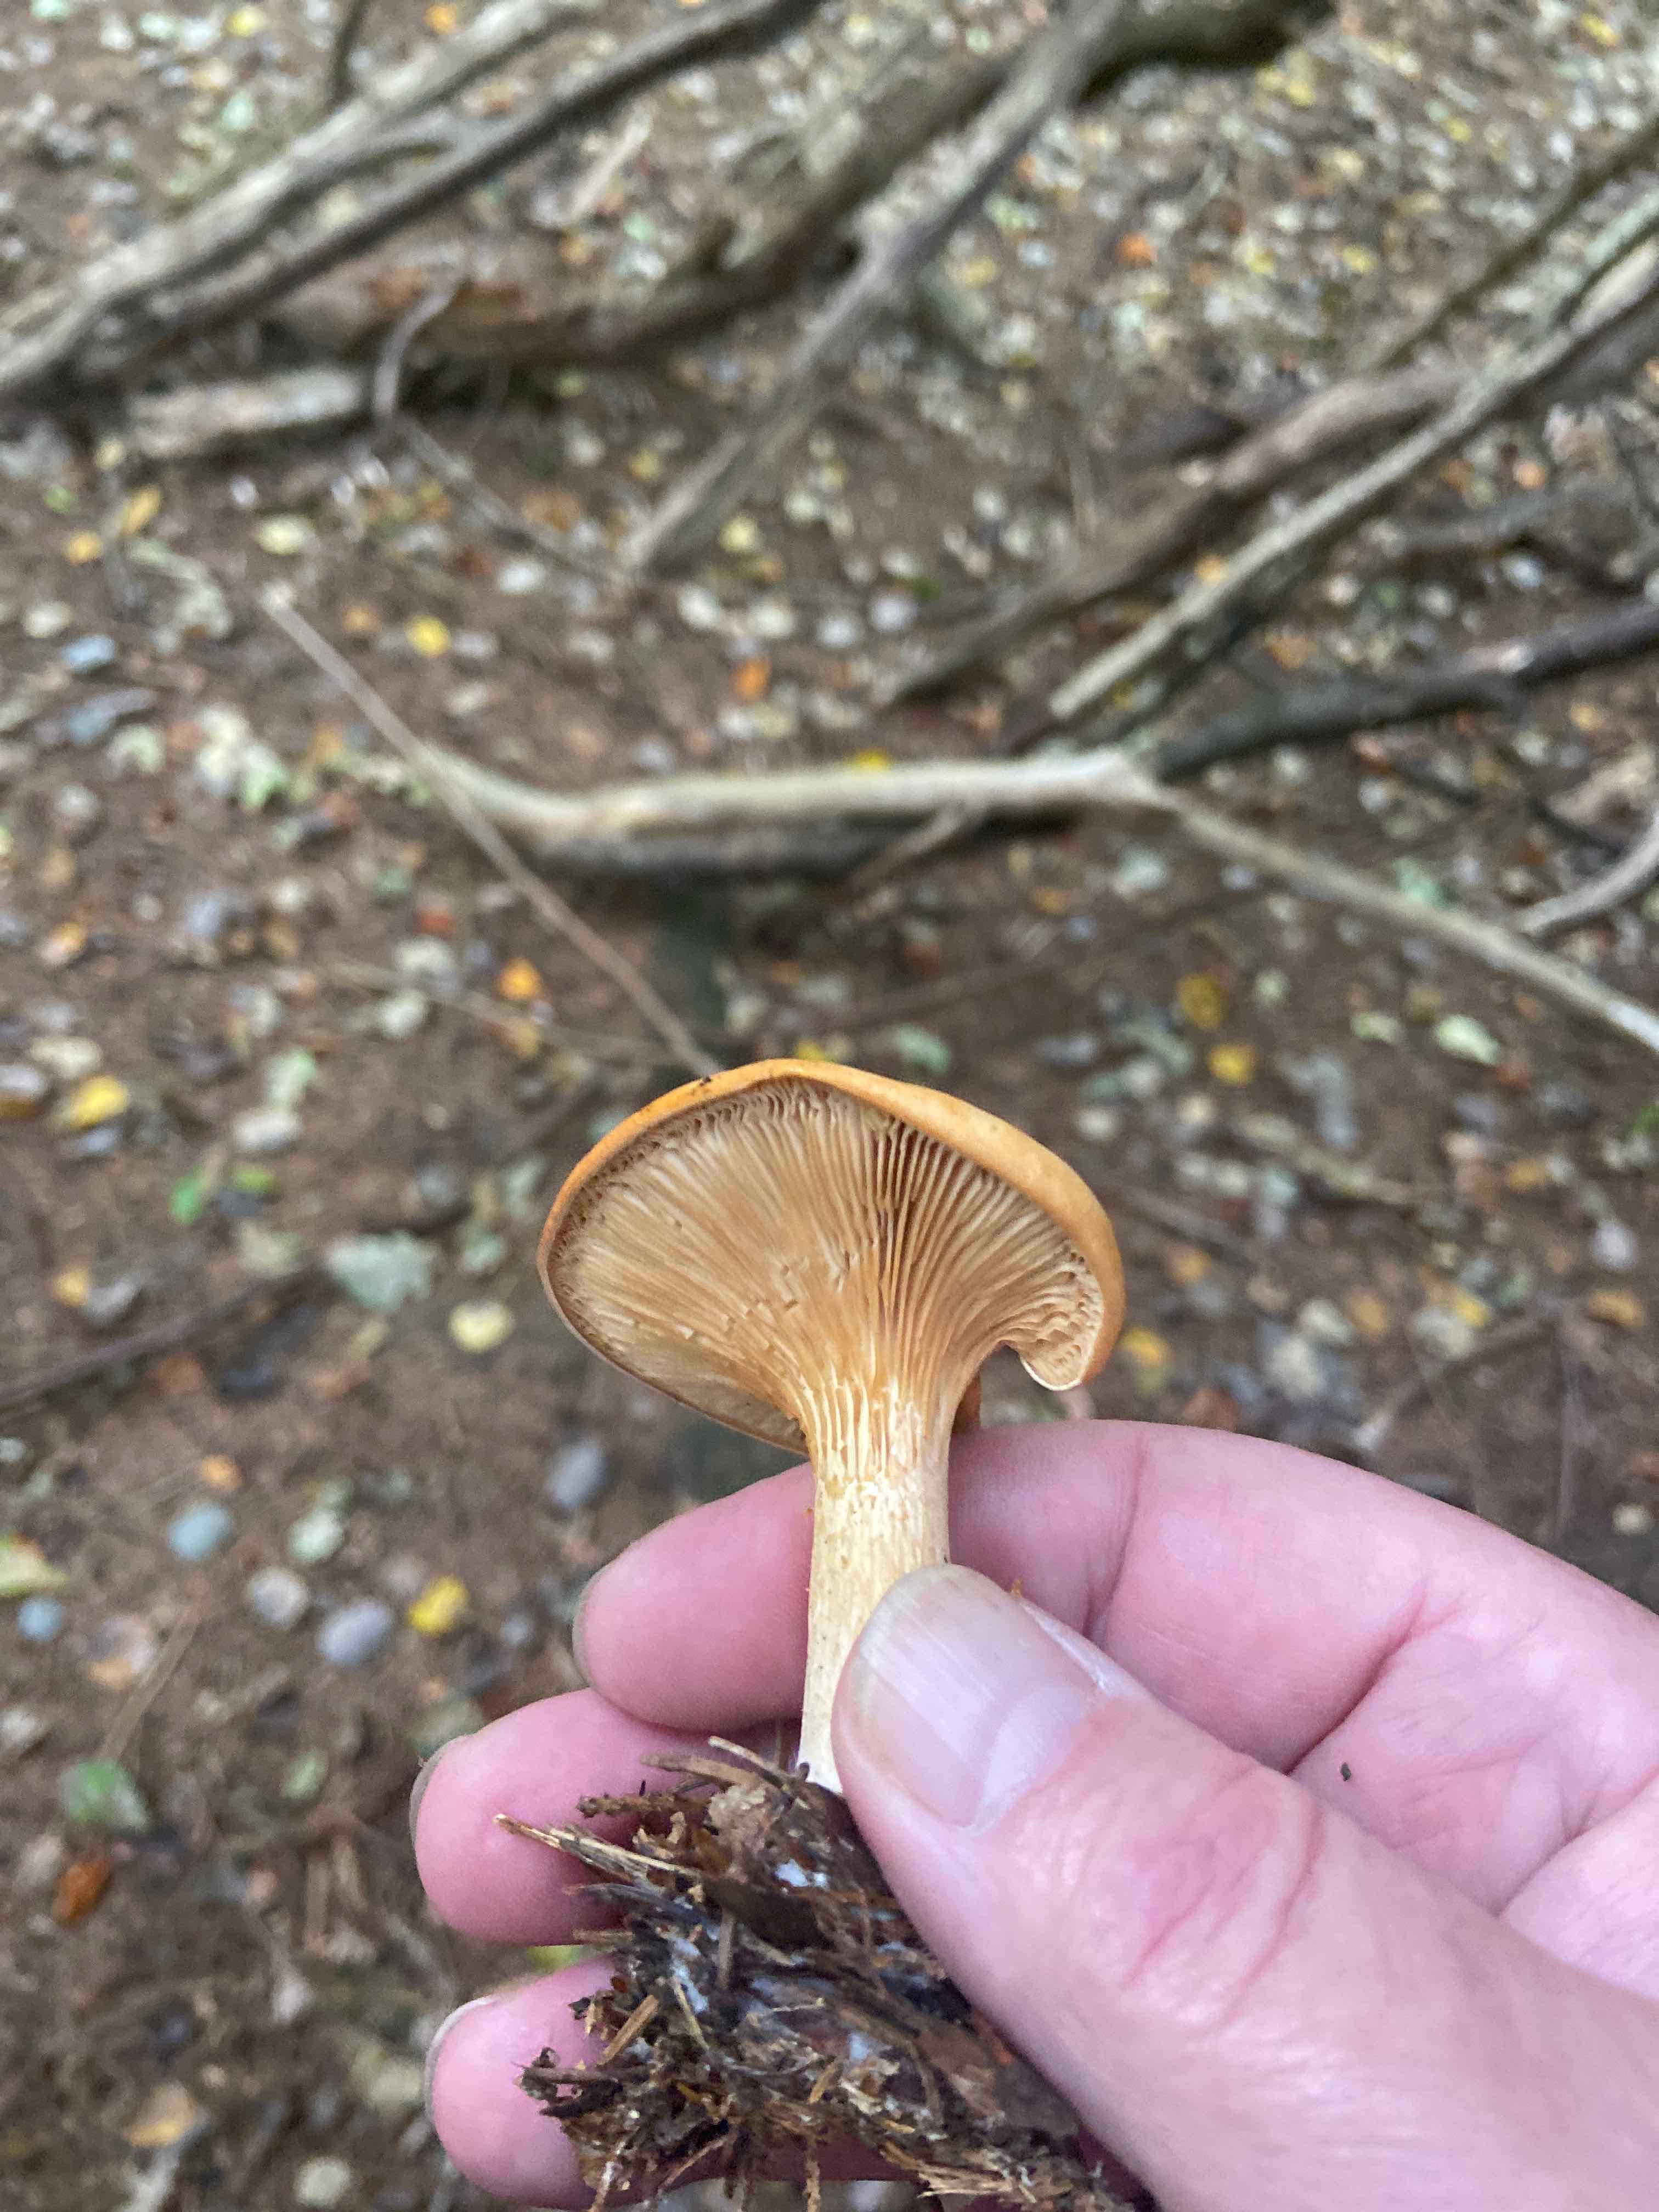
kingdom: Fungi
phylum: Basidiomycota
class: Agaricomycetes
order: Agaricales
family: Tricholomataceae
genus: Paralepista
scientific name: Paralepista
